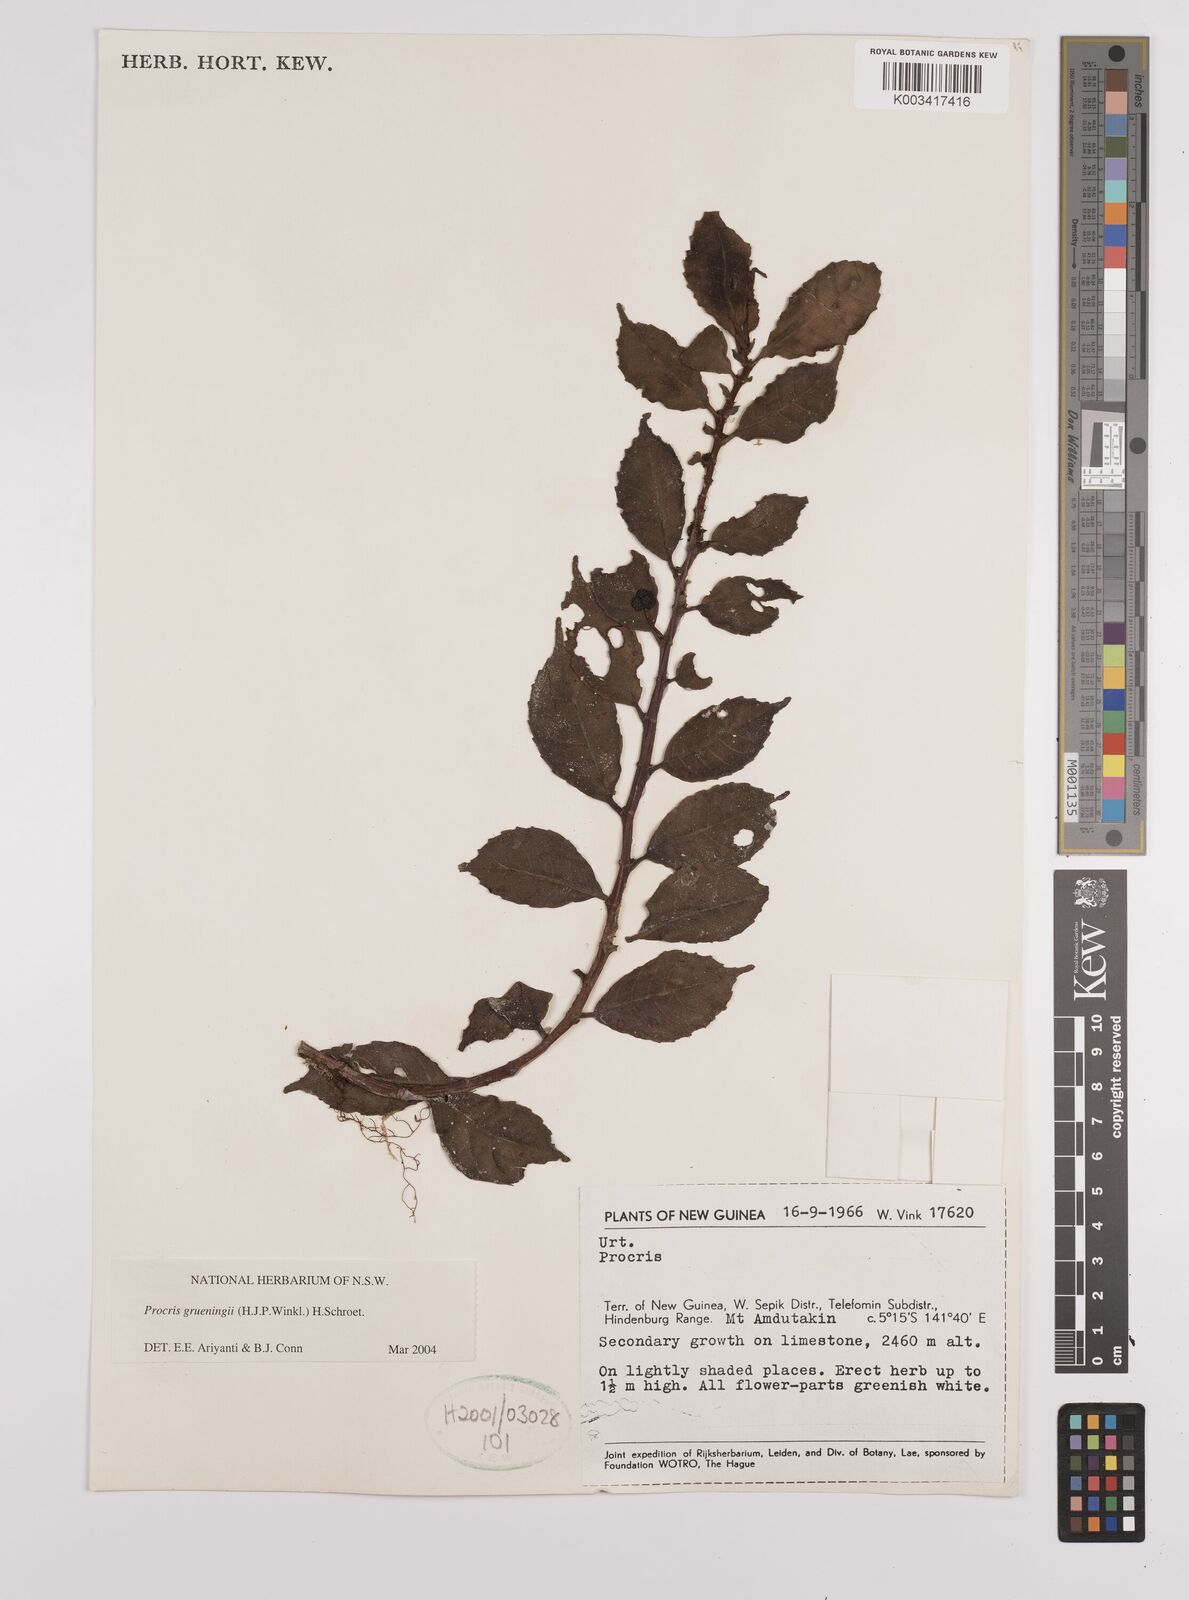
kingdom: Plantae
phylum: Tracheophyta
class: Magnoliopsida
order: Rosales
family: Urticaceae
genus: Procris
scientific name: Procris grueningii
